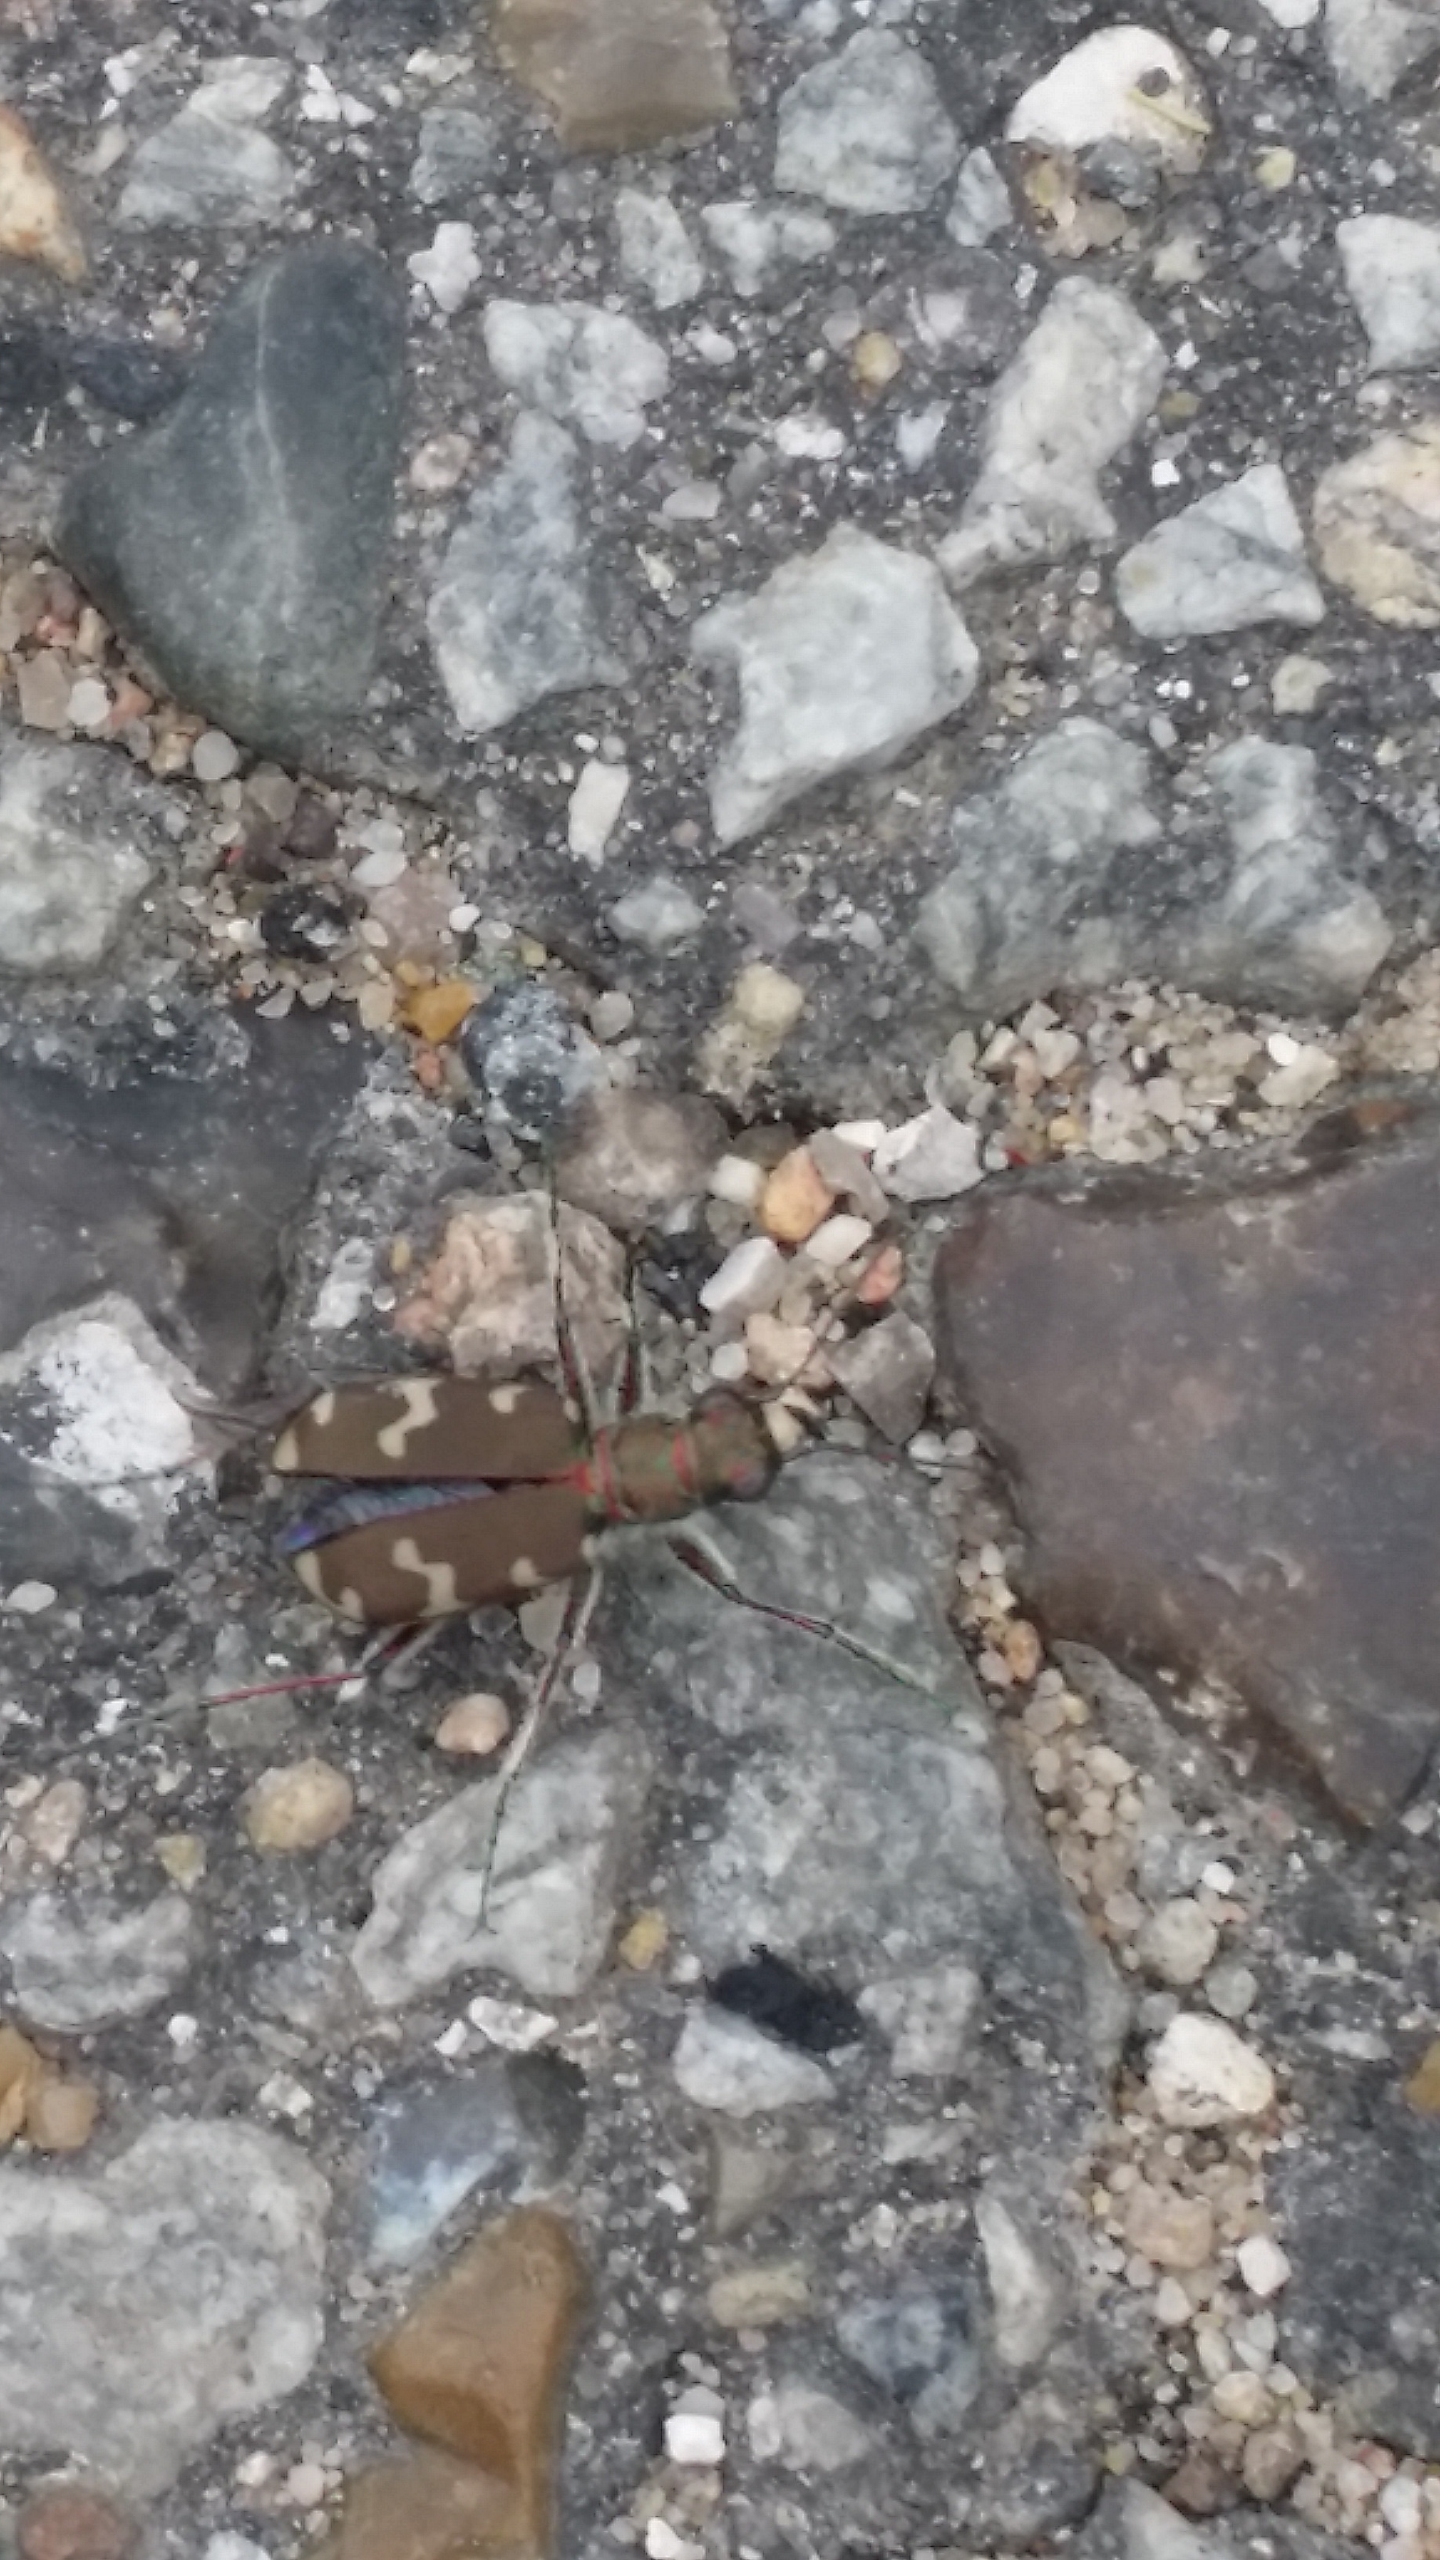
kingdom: Animalia
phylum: Arthropoda
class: Insecta
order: Coleoptera
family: Carabidae
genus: Cicindela
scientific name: Cicindela hybrida
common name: Brun sandspringer
